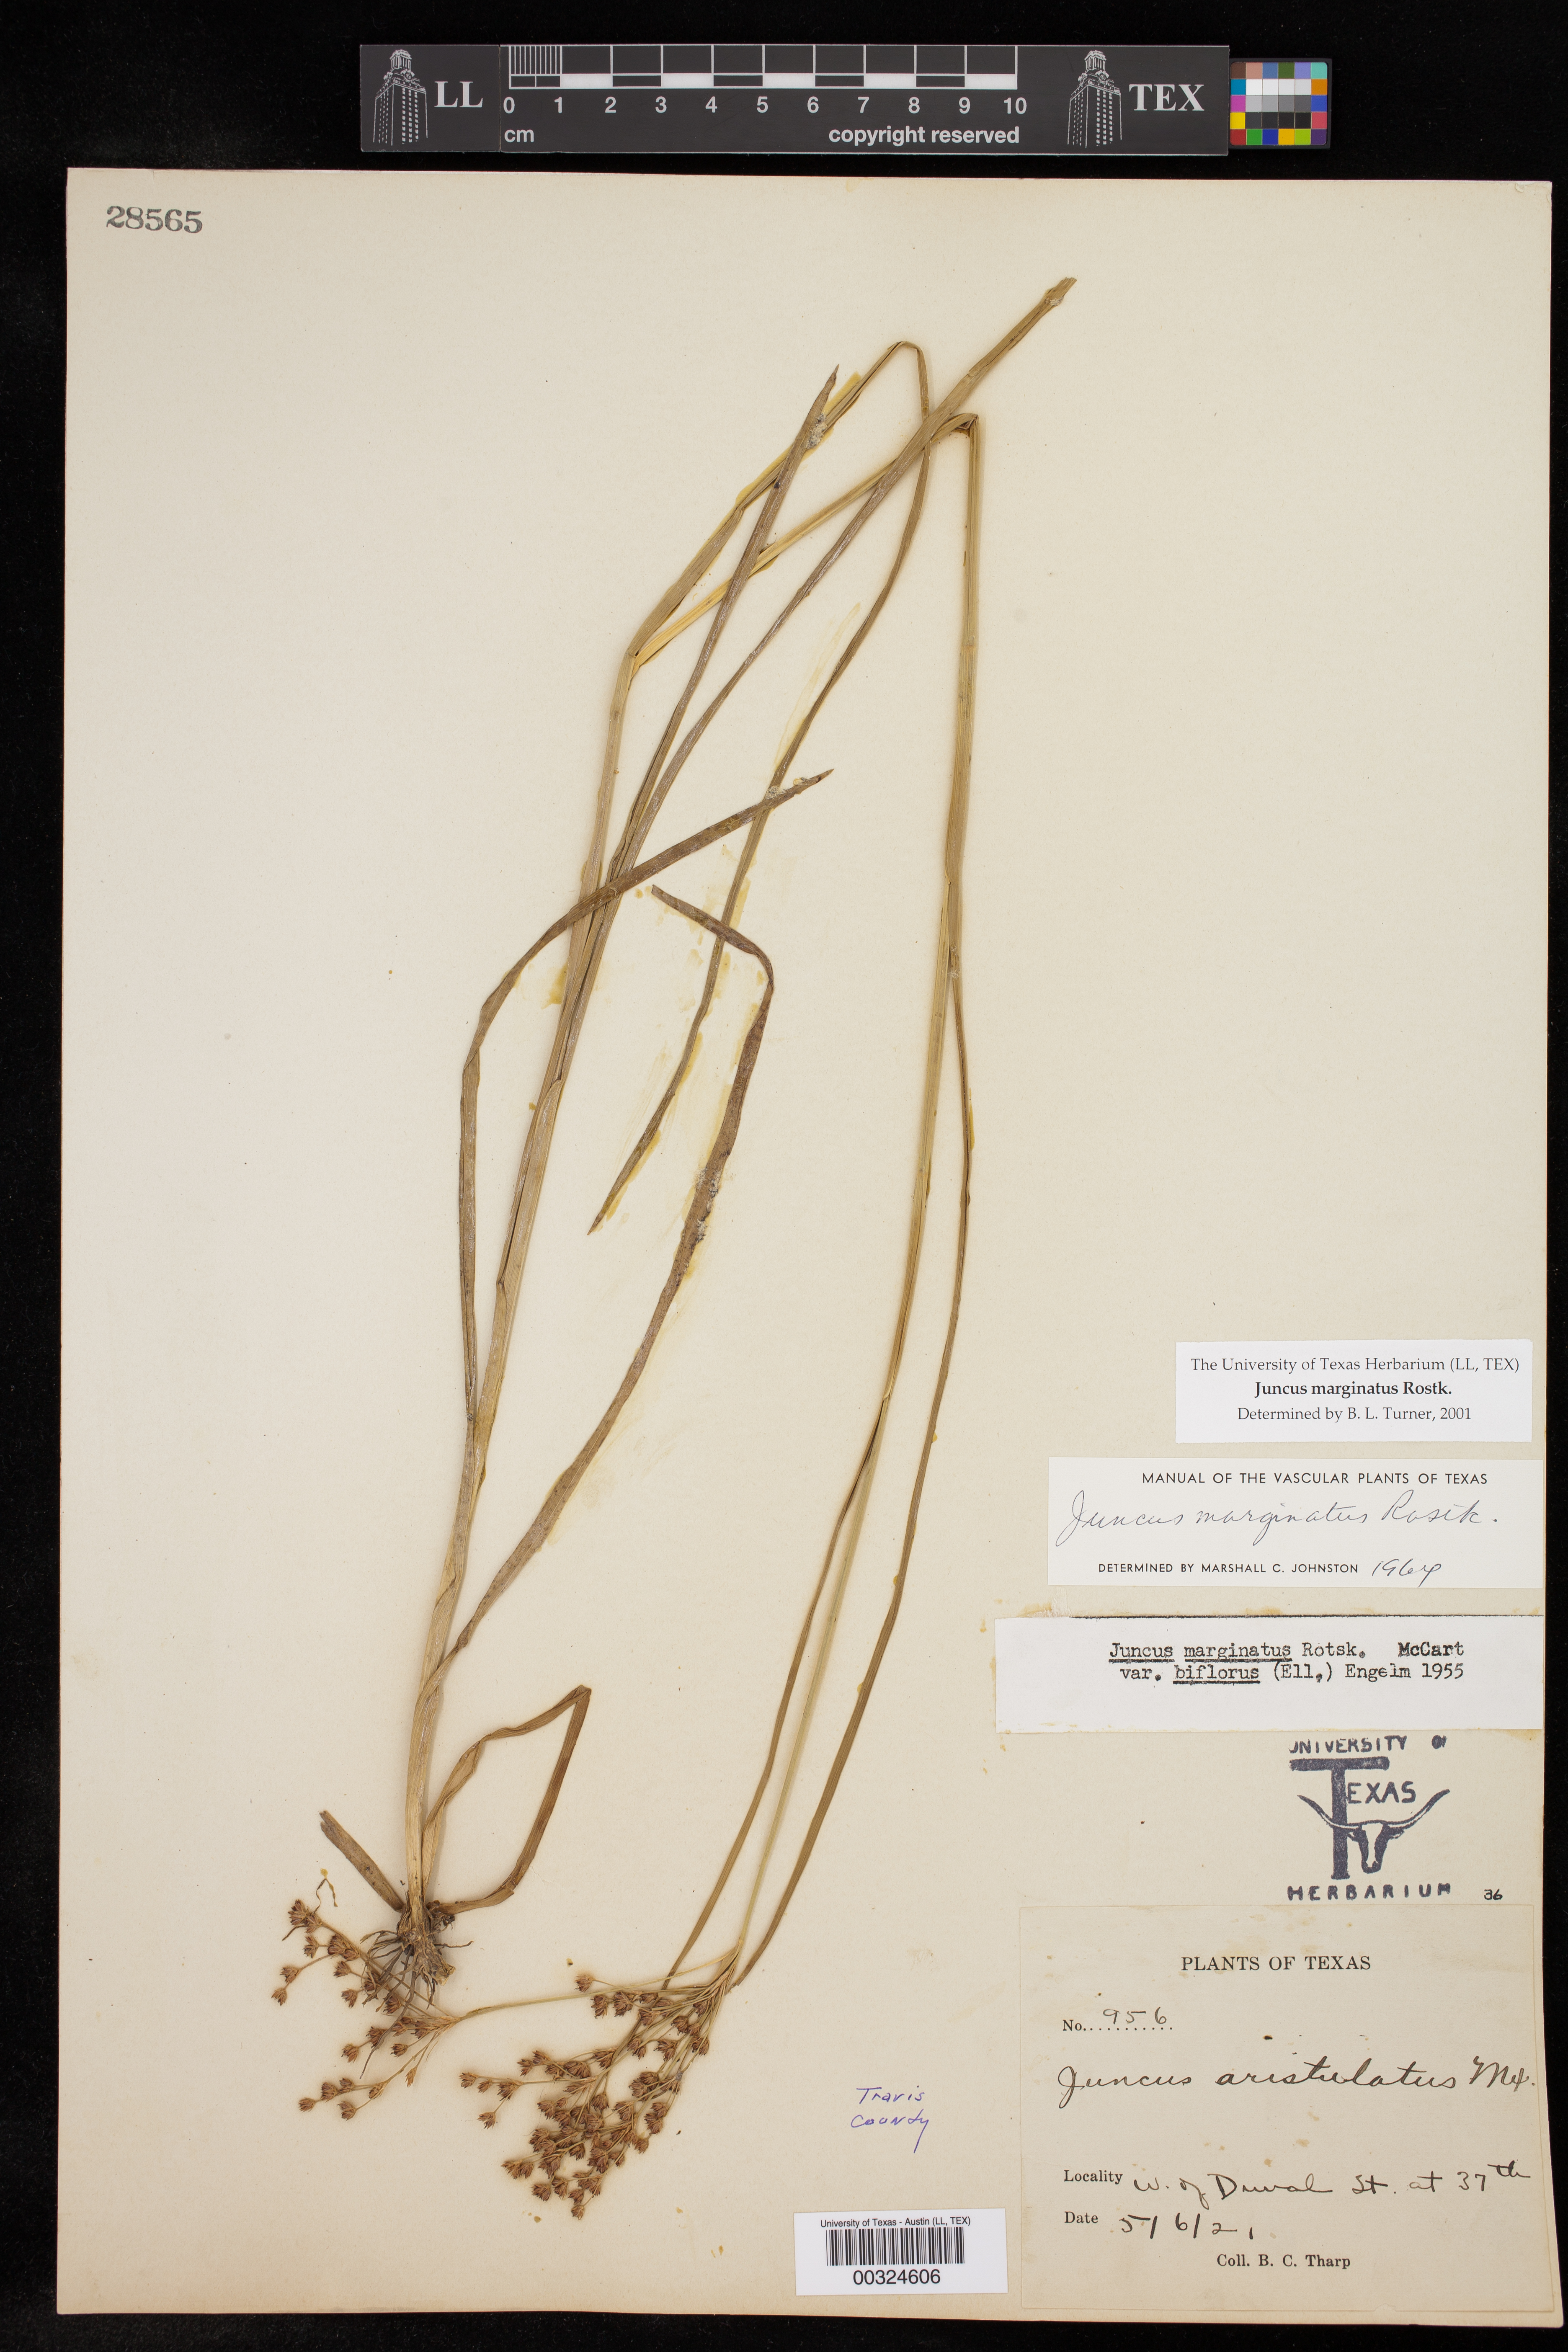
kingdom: Plantae
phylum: Tracheophyta
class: Liliopsida
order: Poales
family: Juncaceae
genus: Juncus
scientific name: Juncus marginatus
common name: Grass-leaf rush
